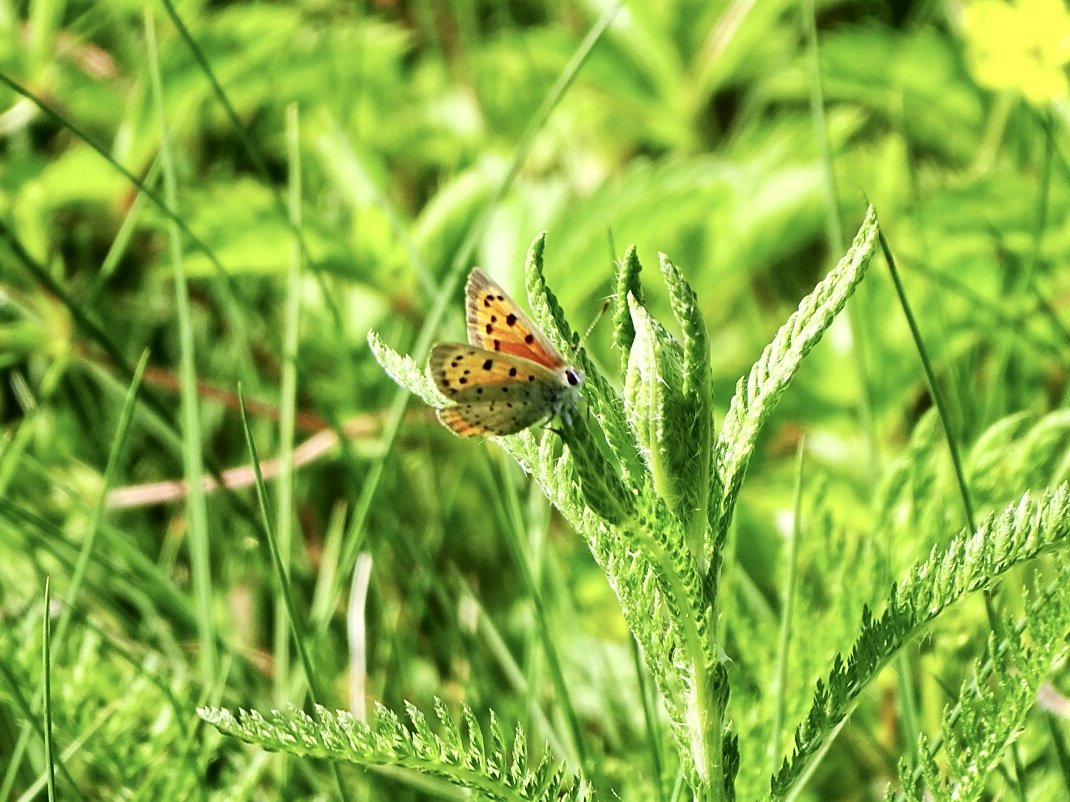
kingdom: Animalia
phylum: Arthropoda
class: Insecta
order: Lepidoptera
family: Lycaenidae
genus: Lycaena
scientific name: Lycaena phlaeas
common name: American Copper
